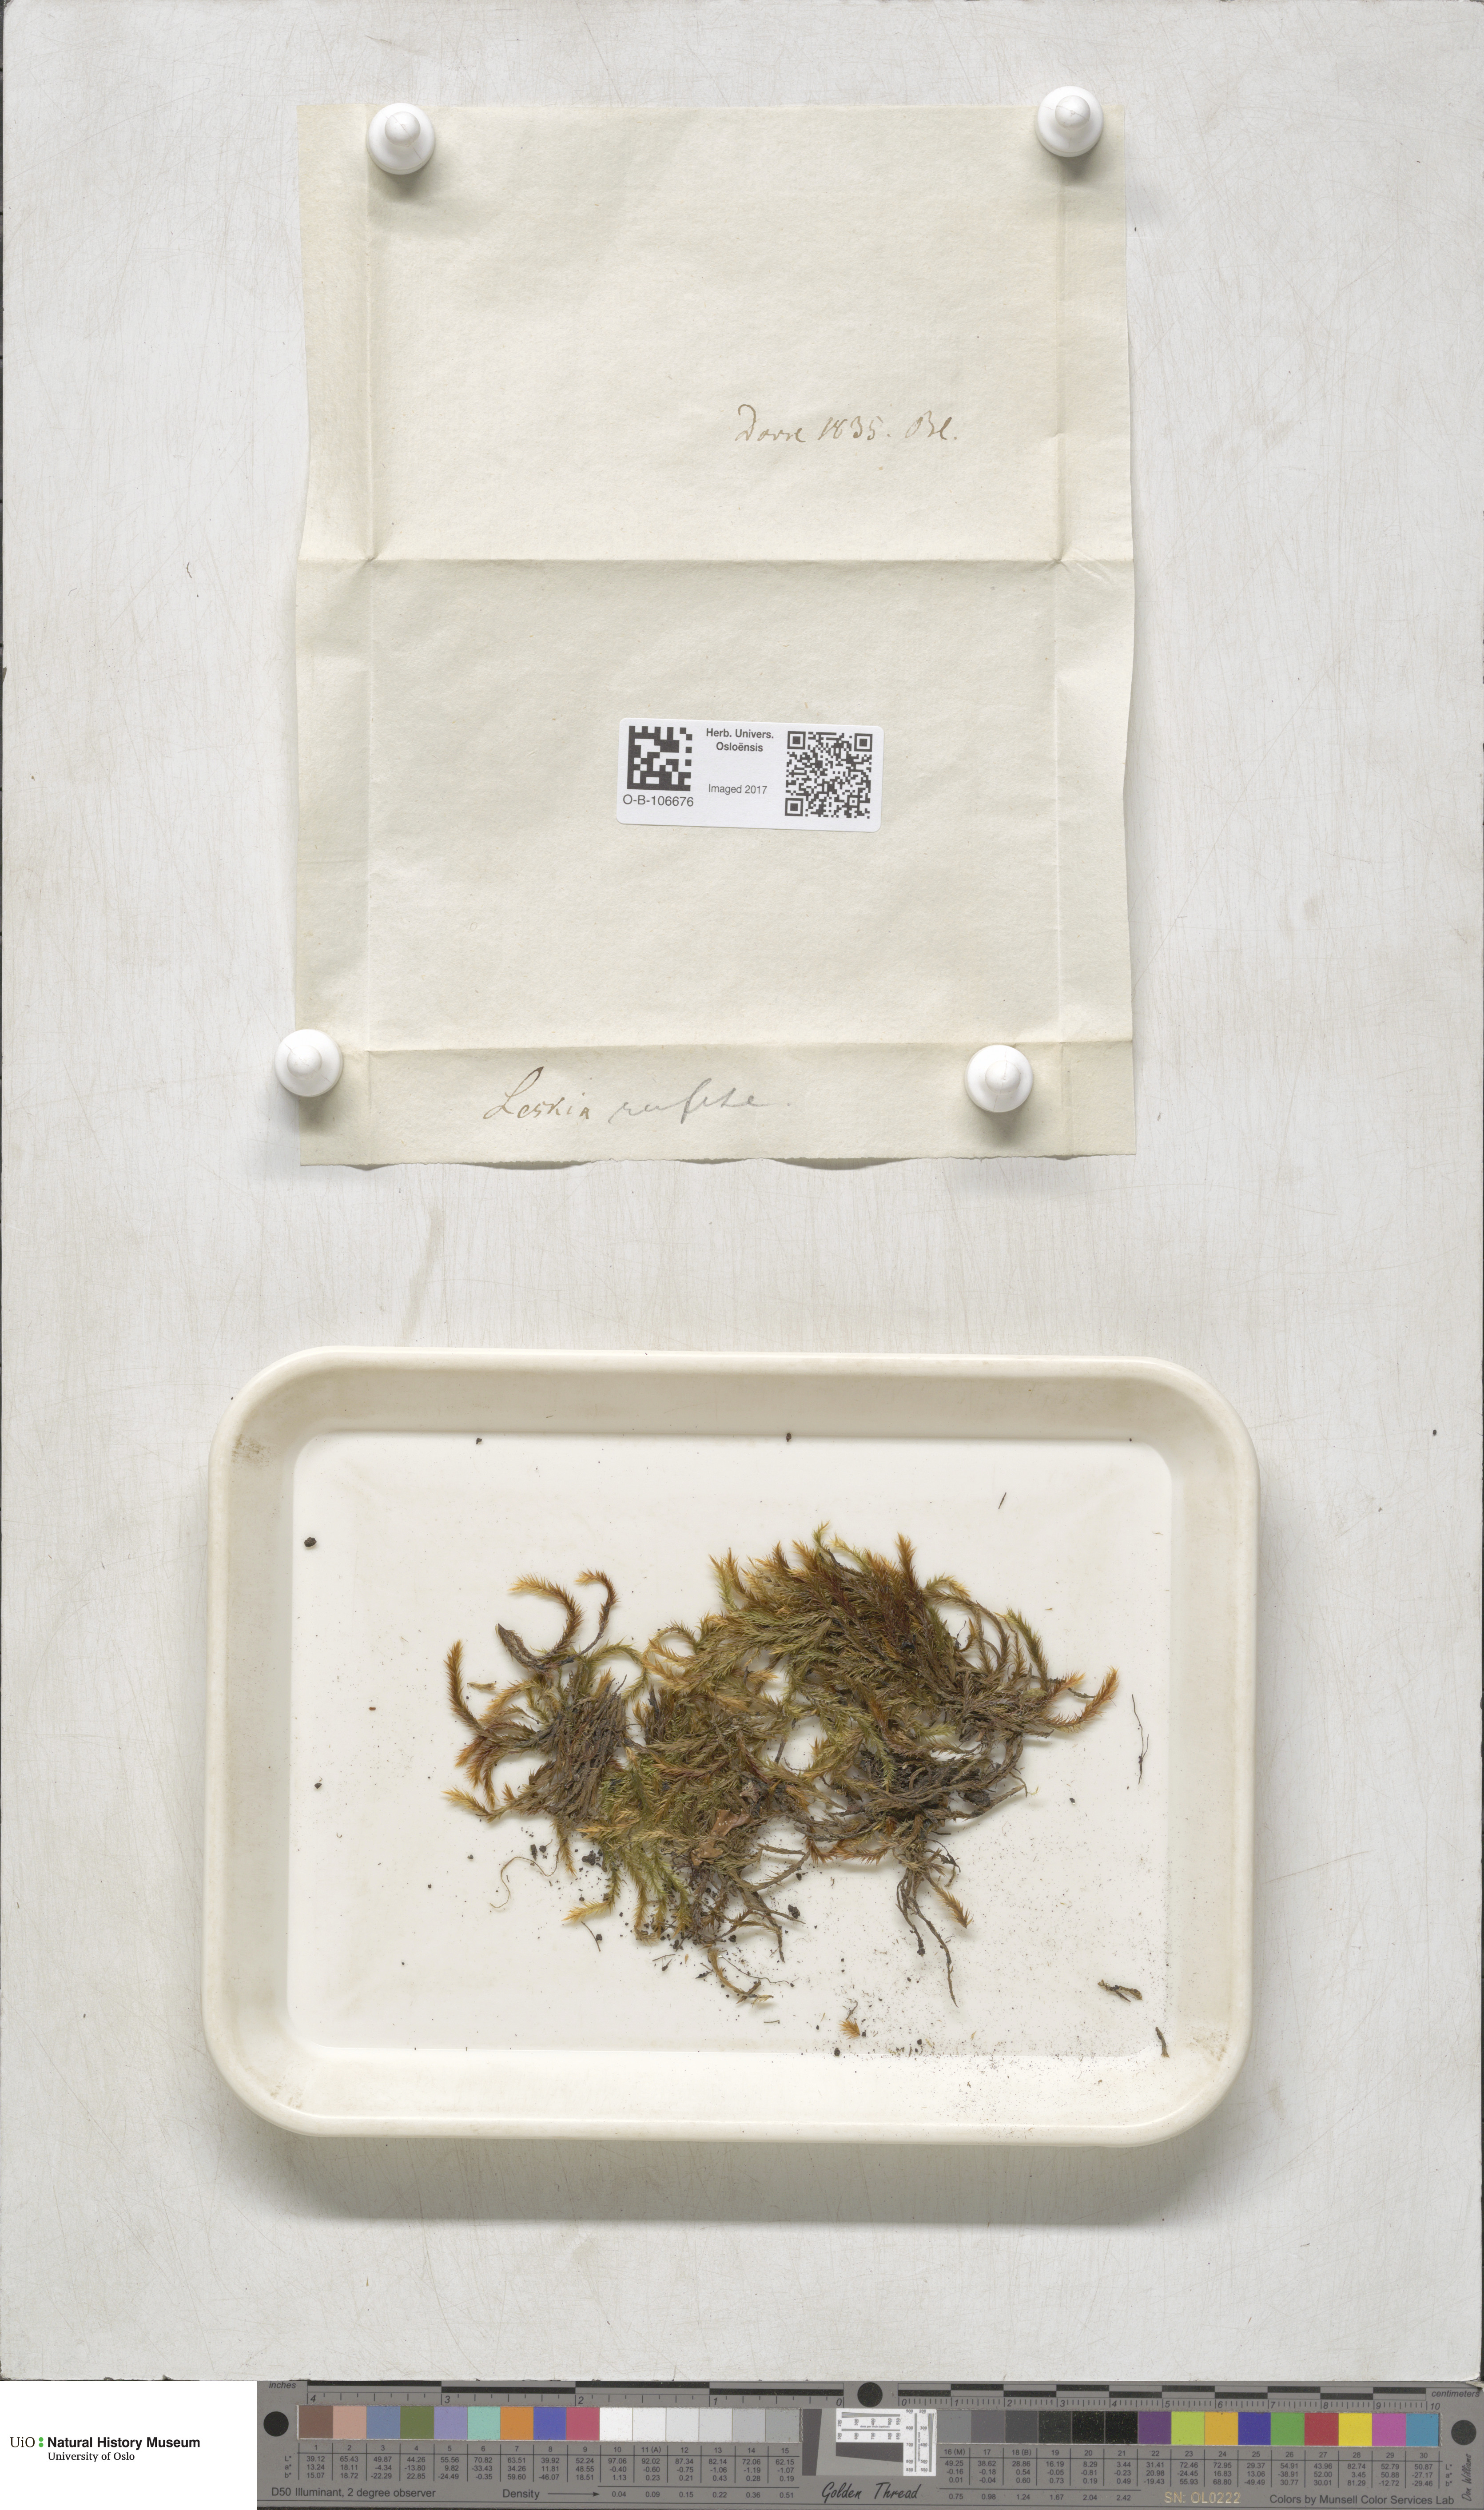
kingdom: Plantae
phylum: Bryophyta
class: Bryopsida
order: Hypnales
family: Plagiotheciaceae
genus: Orthothecium
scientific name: Orthothecium rufescens
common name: Red leskea
